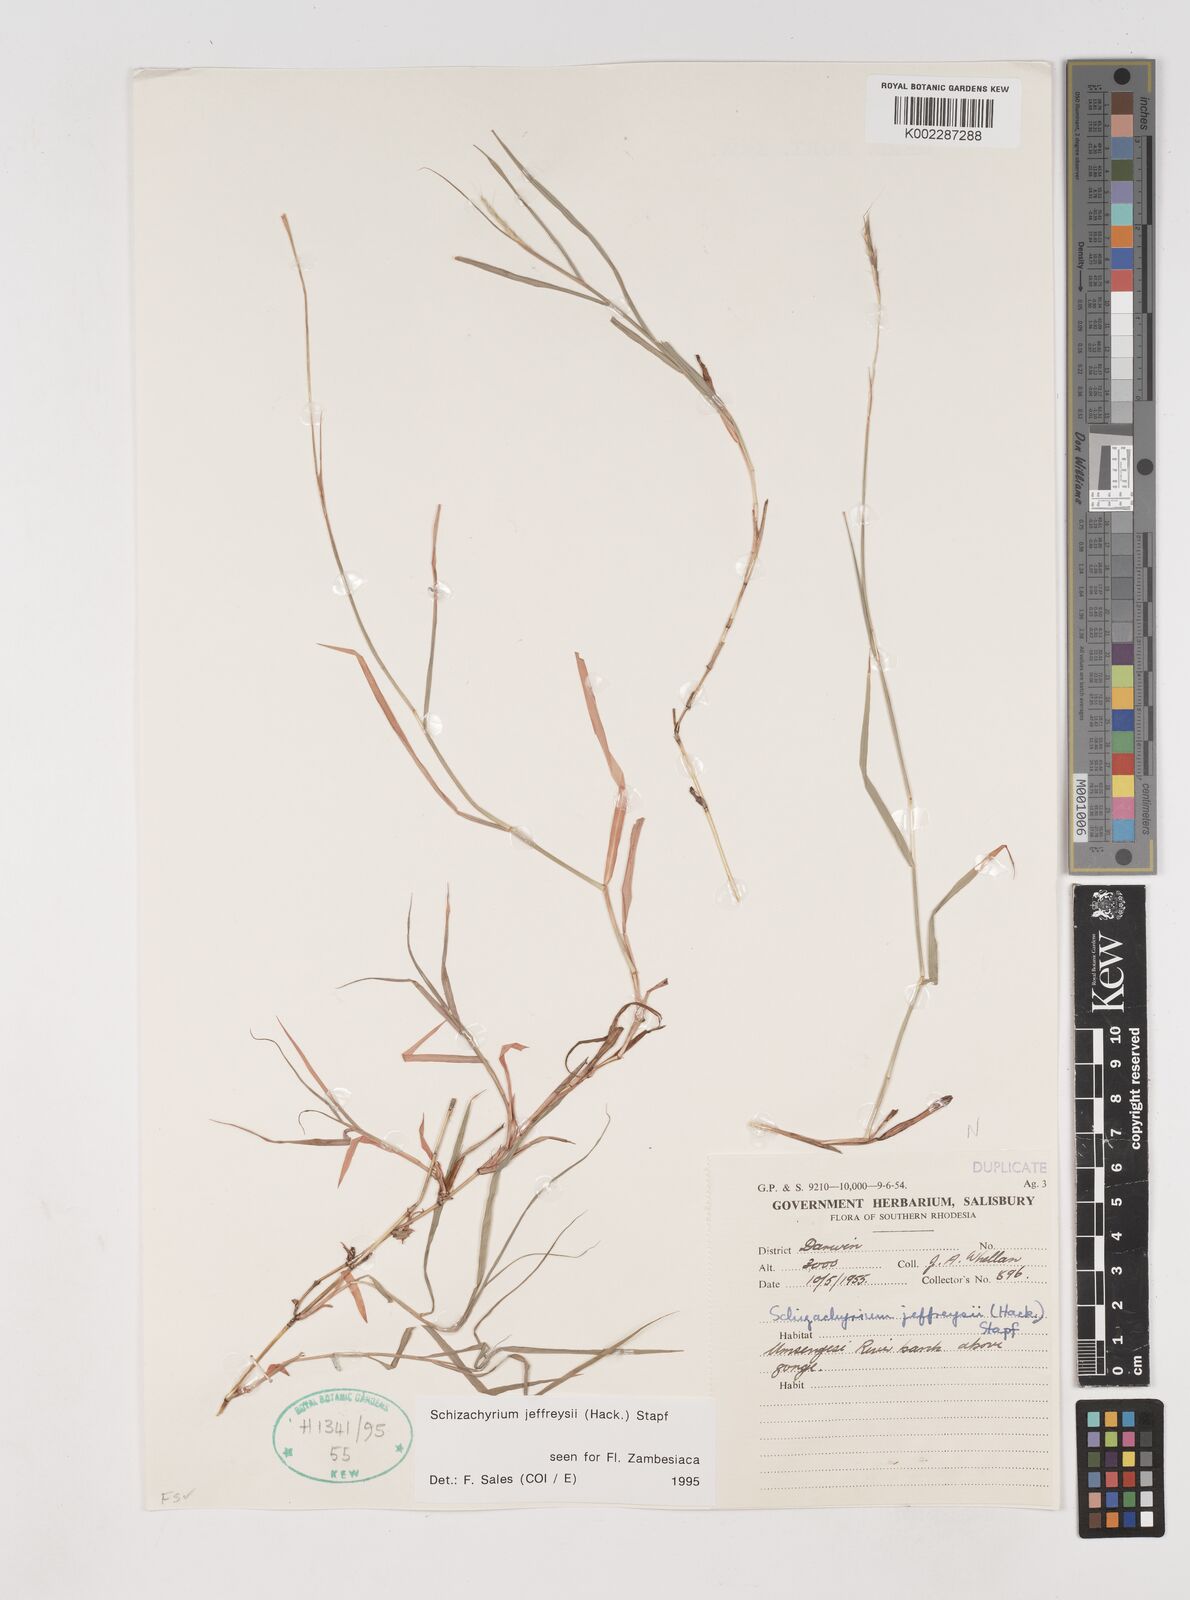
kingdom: Plantae
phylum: Tracheophyta
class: Liliopsida
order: Poales
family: Poaceae
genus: Schizachyrium
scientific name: Schizachyrium jeffreysii
